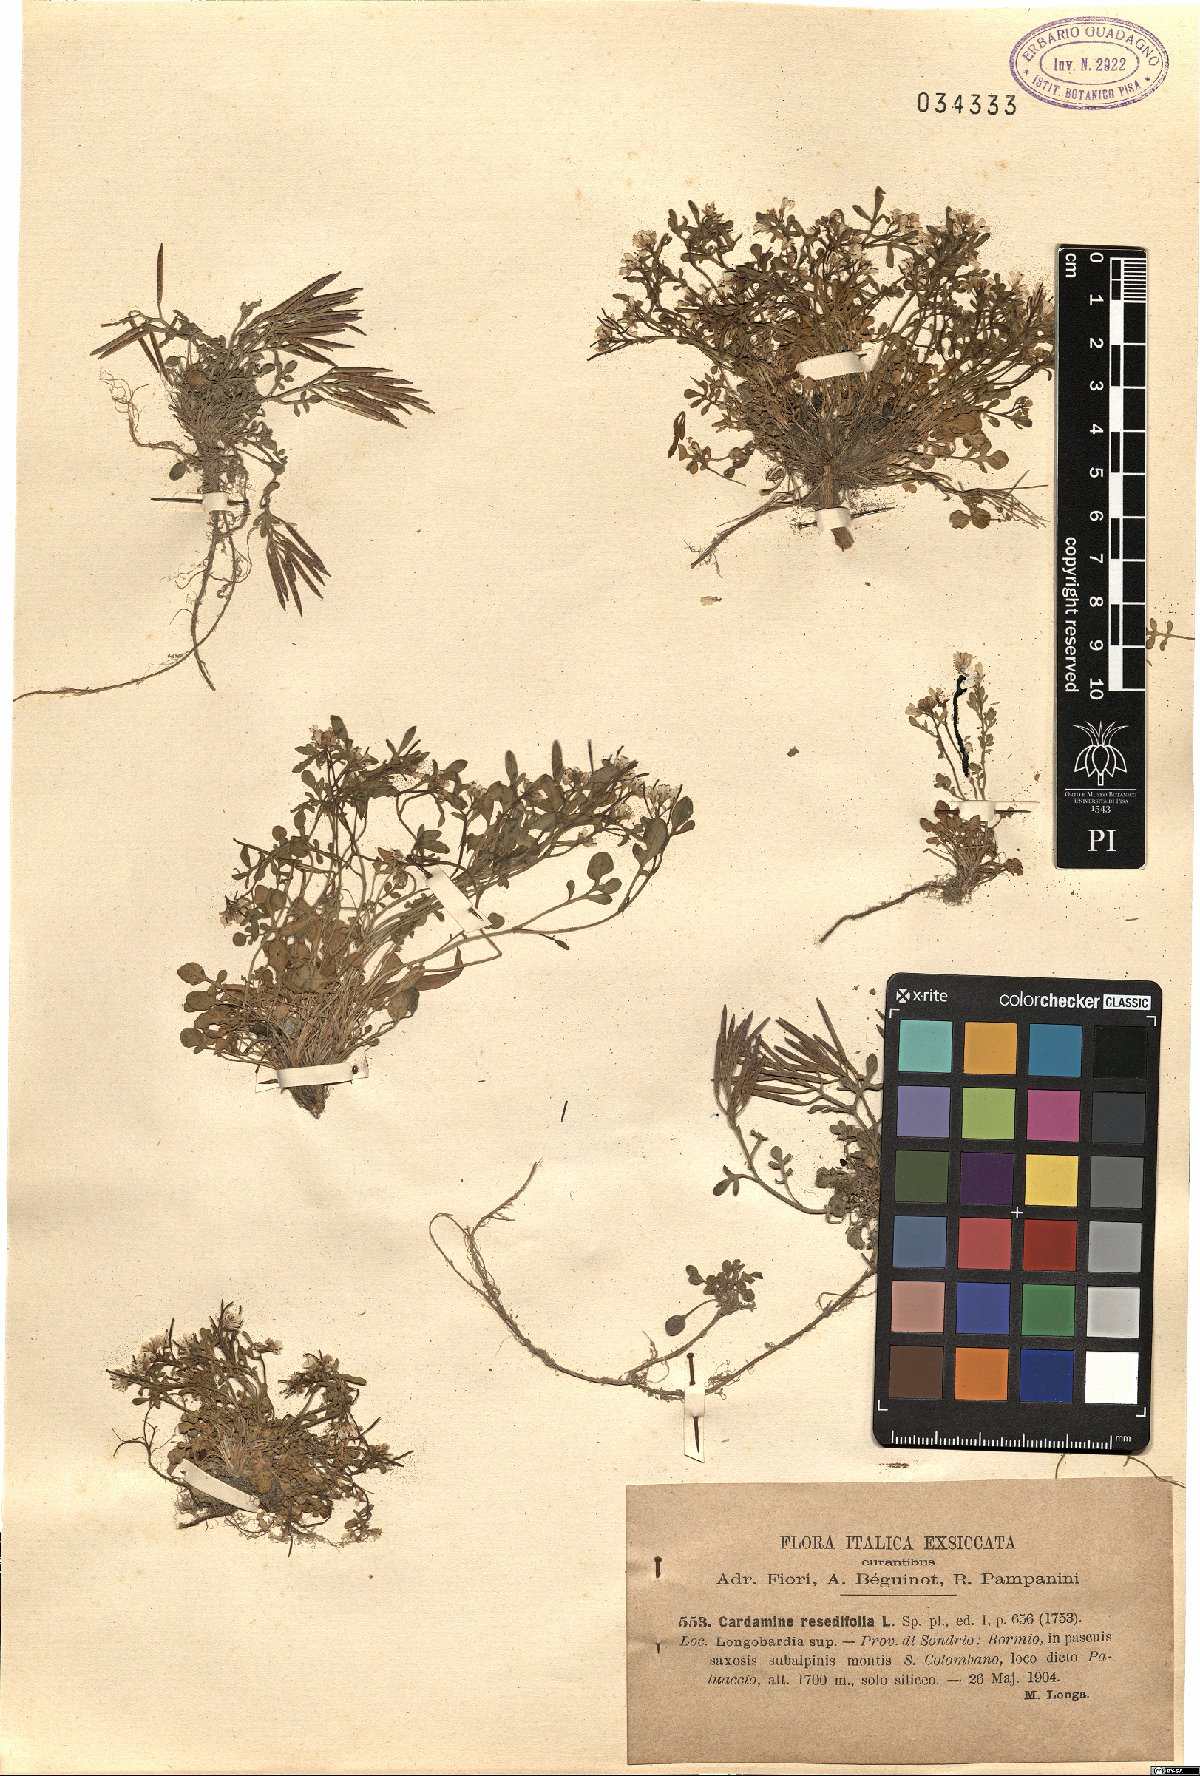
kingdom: Plantae
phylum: Tracheophyta
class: Magnoliopsida
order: Brassicales
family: Brassicaceae
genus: Cardamine
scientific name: Cardamine resedifolia
